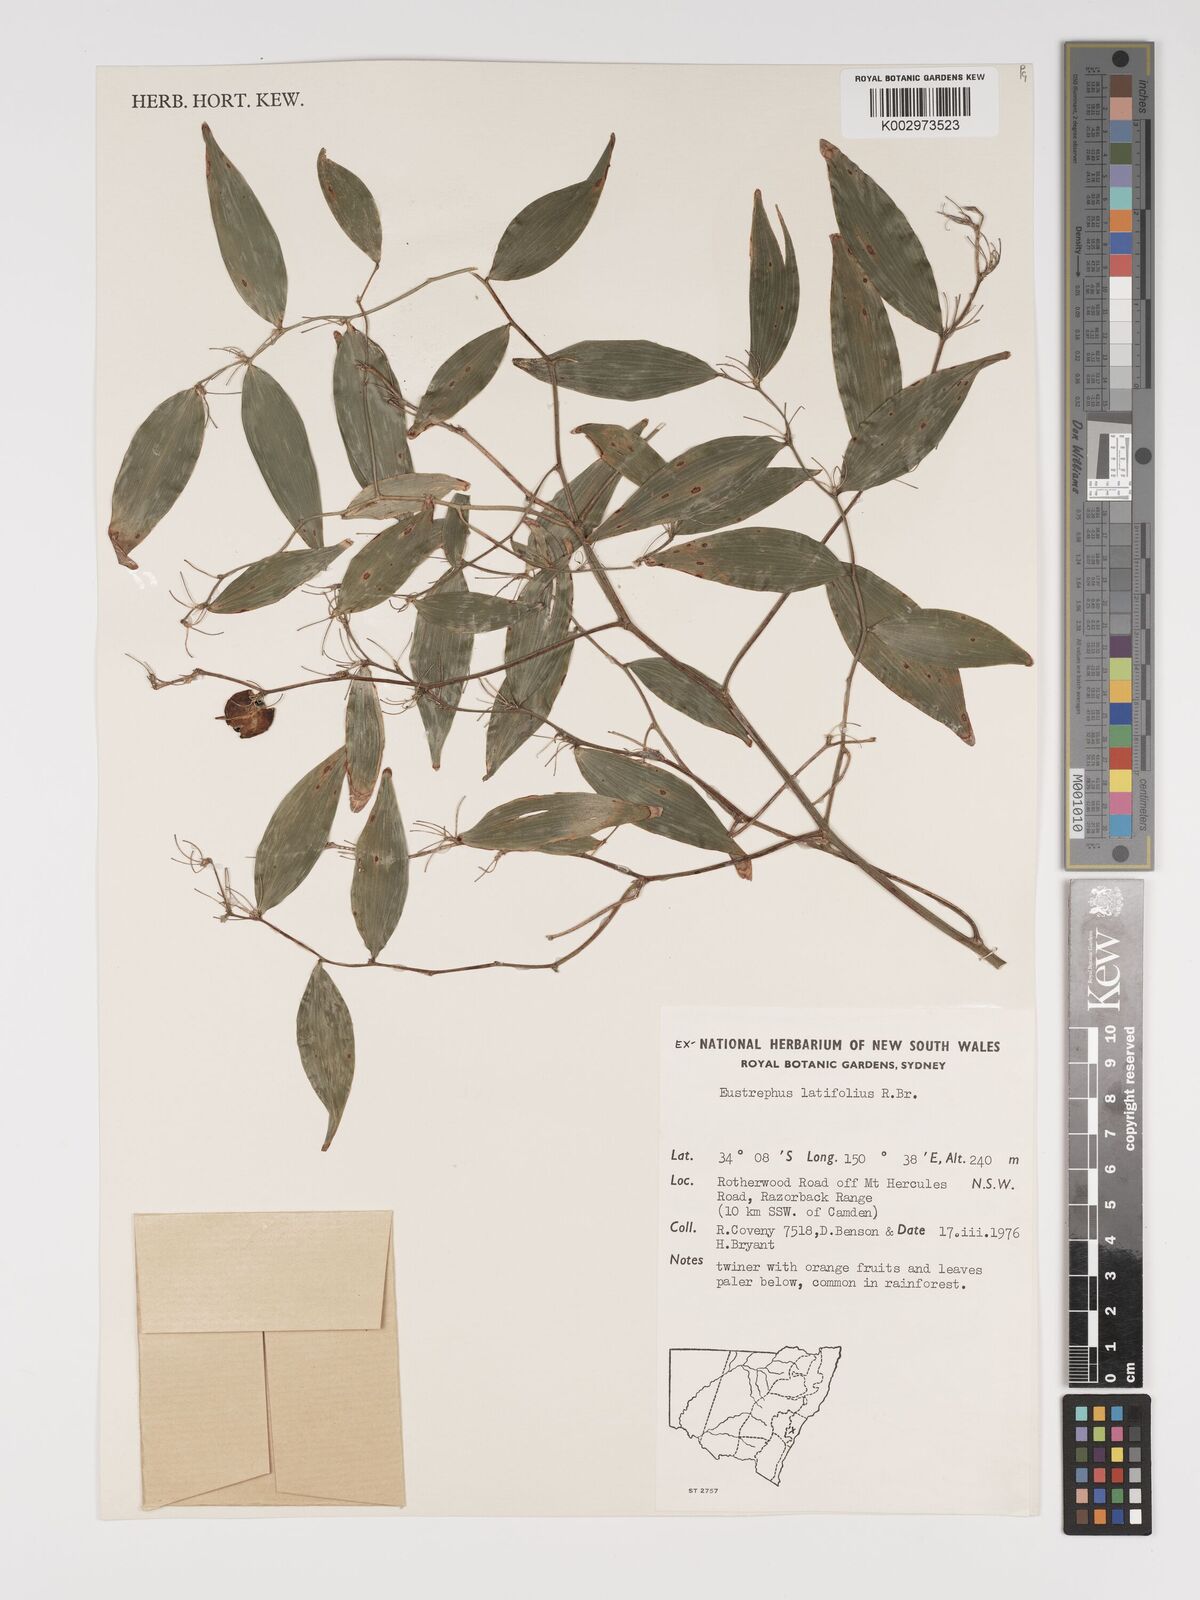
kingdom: Plantae
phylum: Tracheophyta
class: Liliopsida
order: Asparagales
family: Asparagaceae
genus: Eustrephus
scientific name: Eustrephus latifolius
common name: Orangevine
